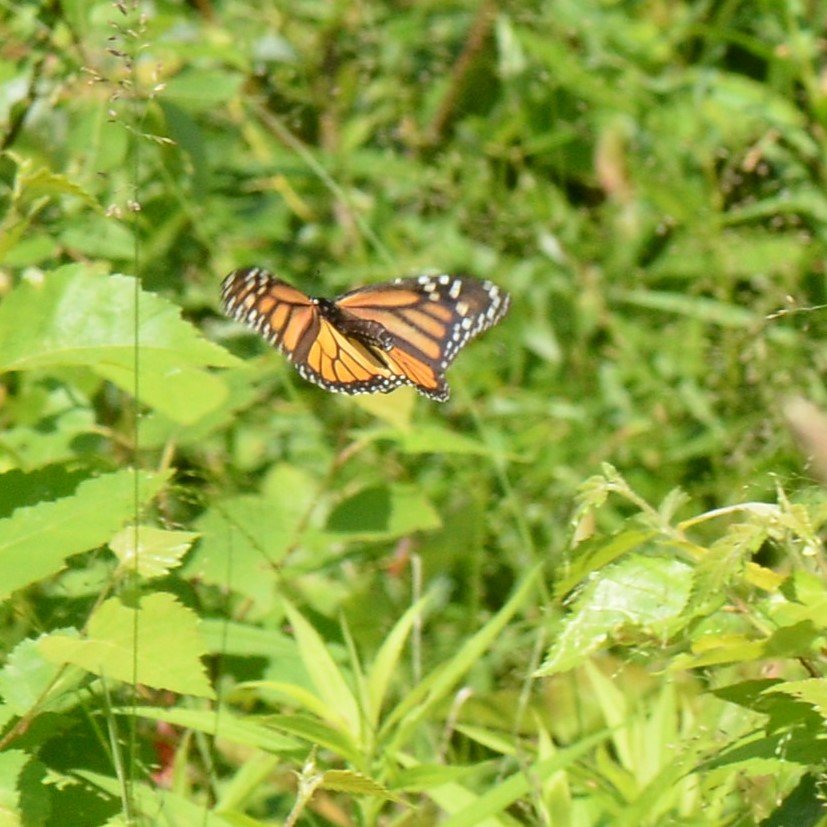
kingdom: Animalia
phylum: Arthropoda
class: Insecta
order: Lepidoptera
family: Nymphalidae
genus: Danaus
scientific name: Danaus plexippus
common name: Monarch
